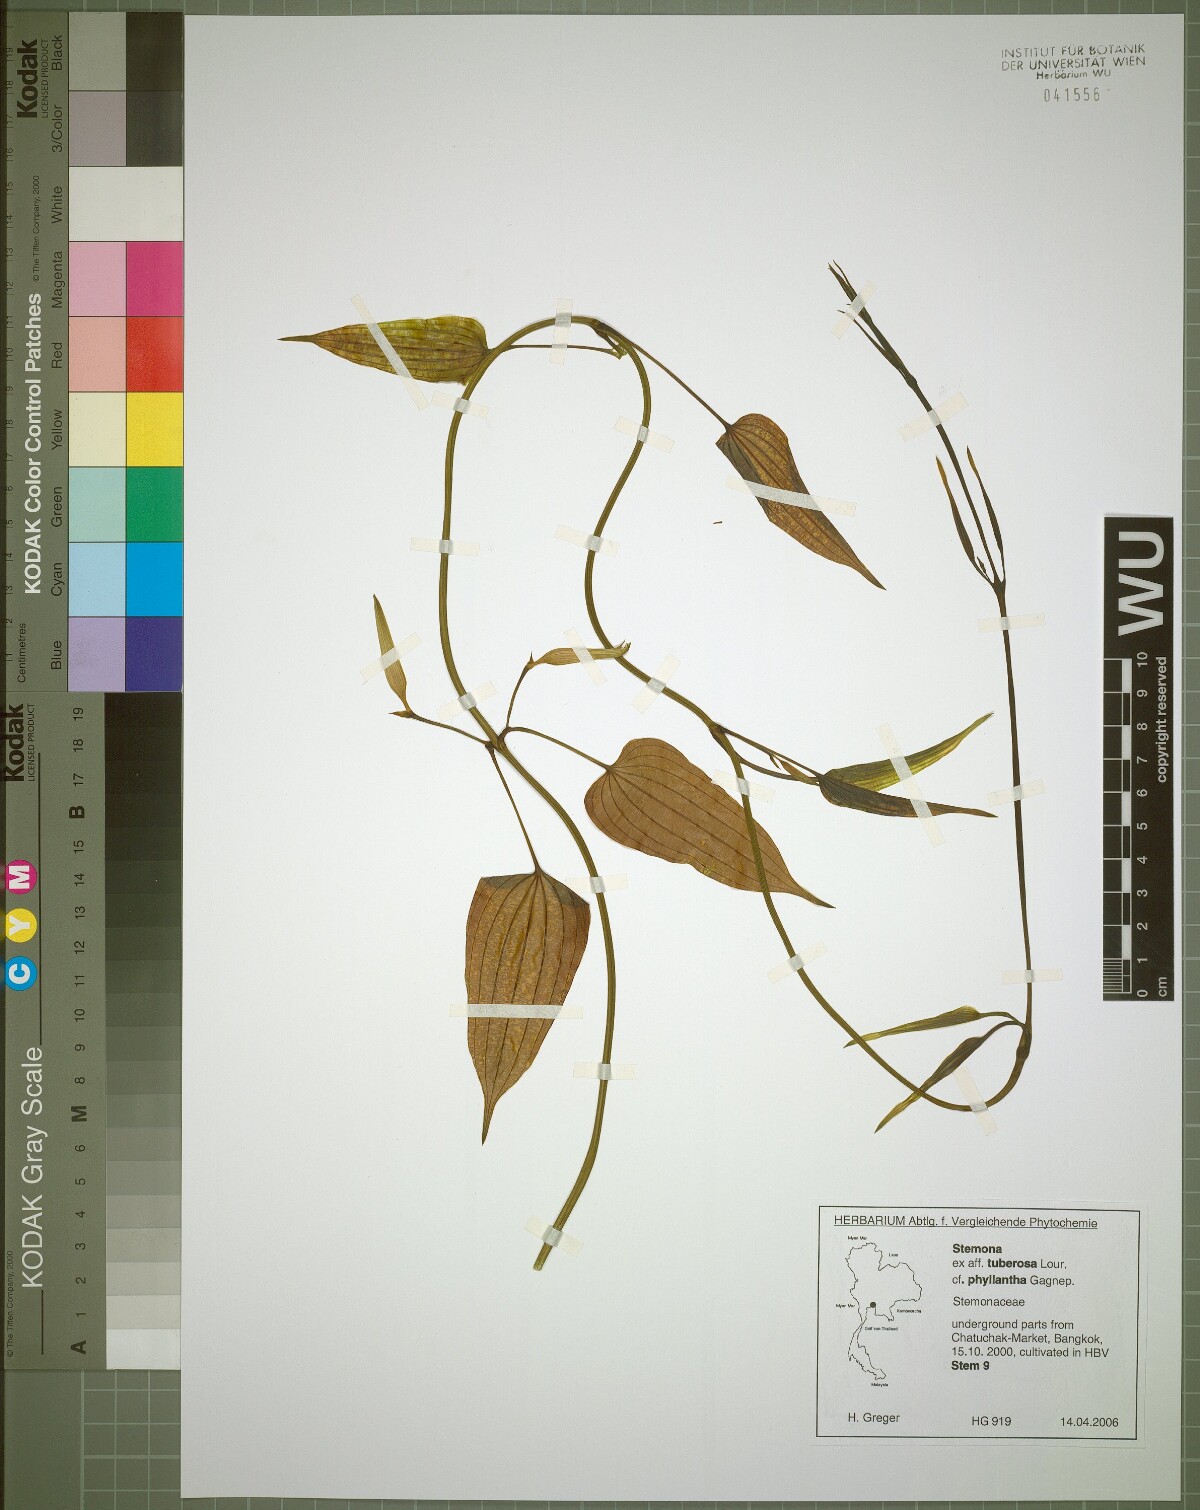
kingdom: Plantae
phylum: Tracheophyta
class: Liliopsida
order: Pandanales
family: Stemonaceae
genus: Stemona
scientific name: Stemona phyllantha
